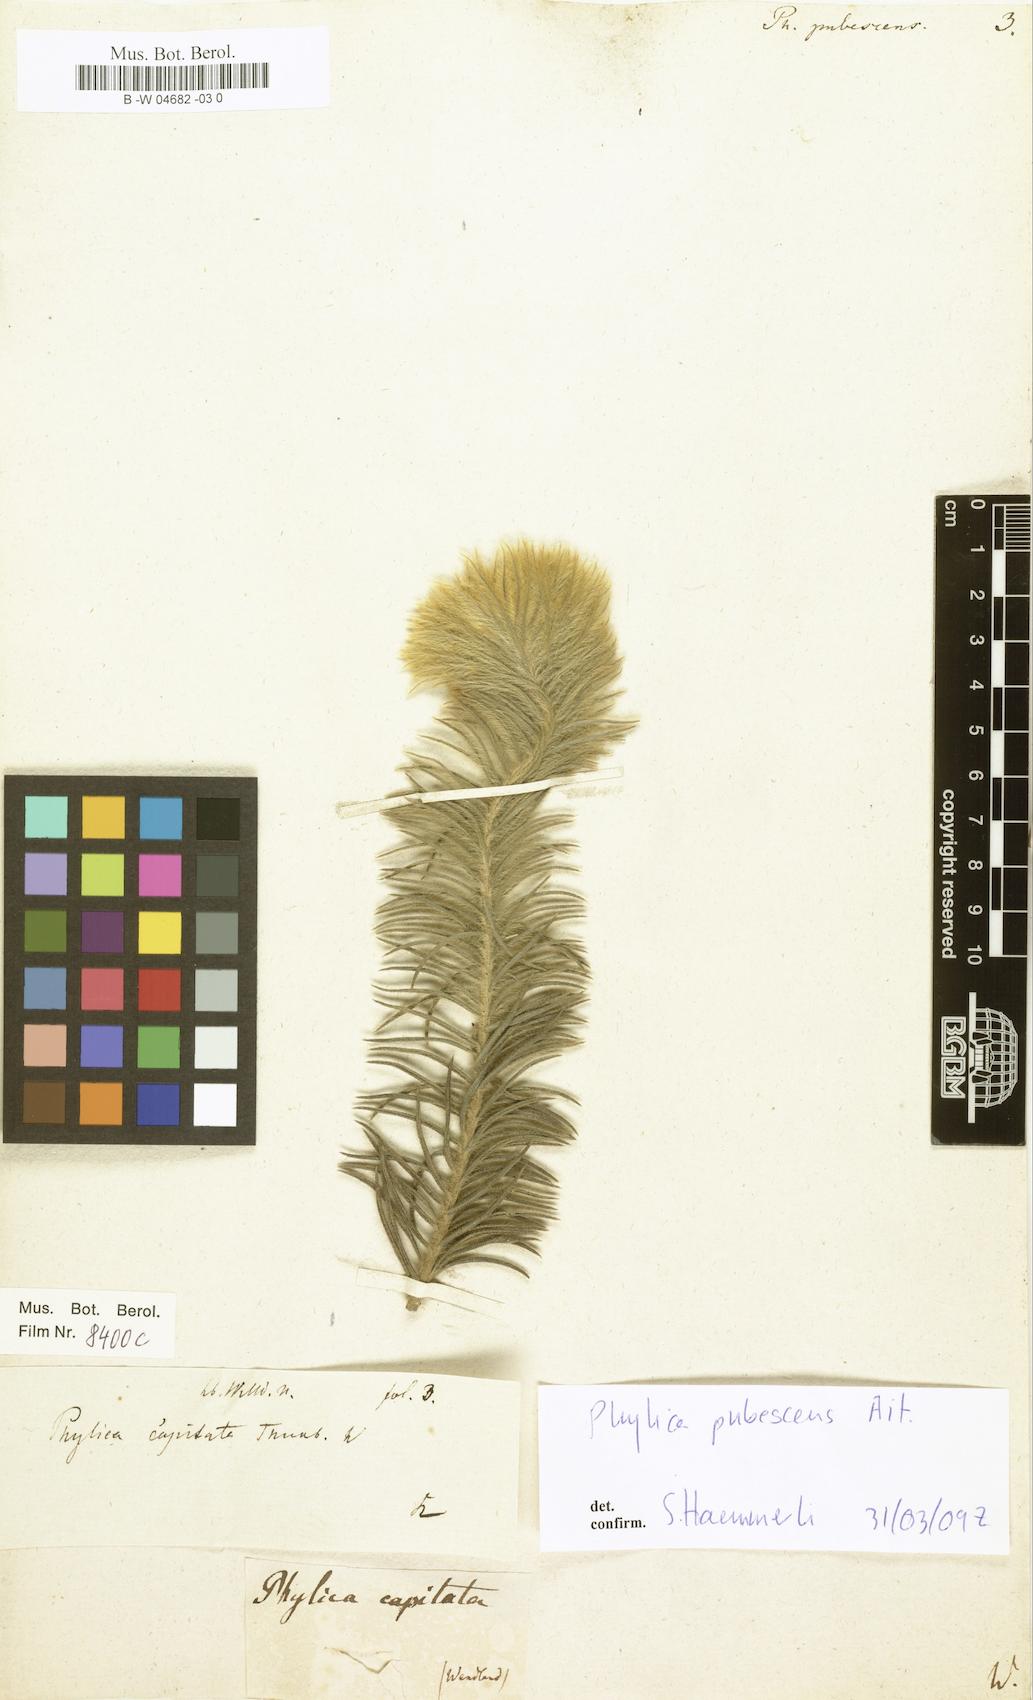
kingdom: Plantae
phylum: Tracheophyta
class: Magnoliopsida
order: Rosales
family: Rhamnaceae
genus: Phylica
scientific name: Phylica pubescens
